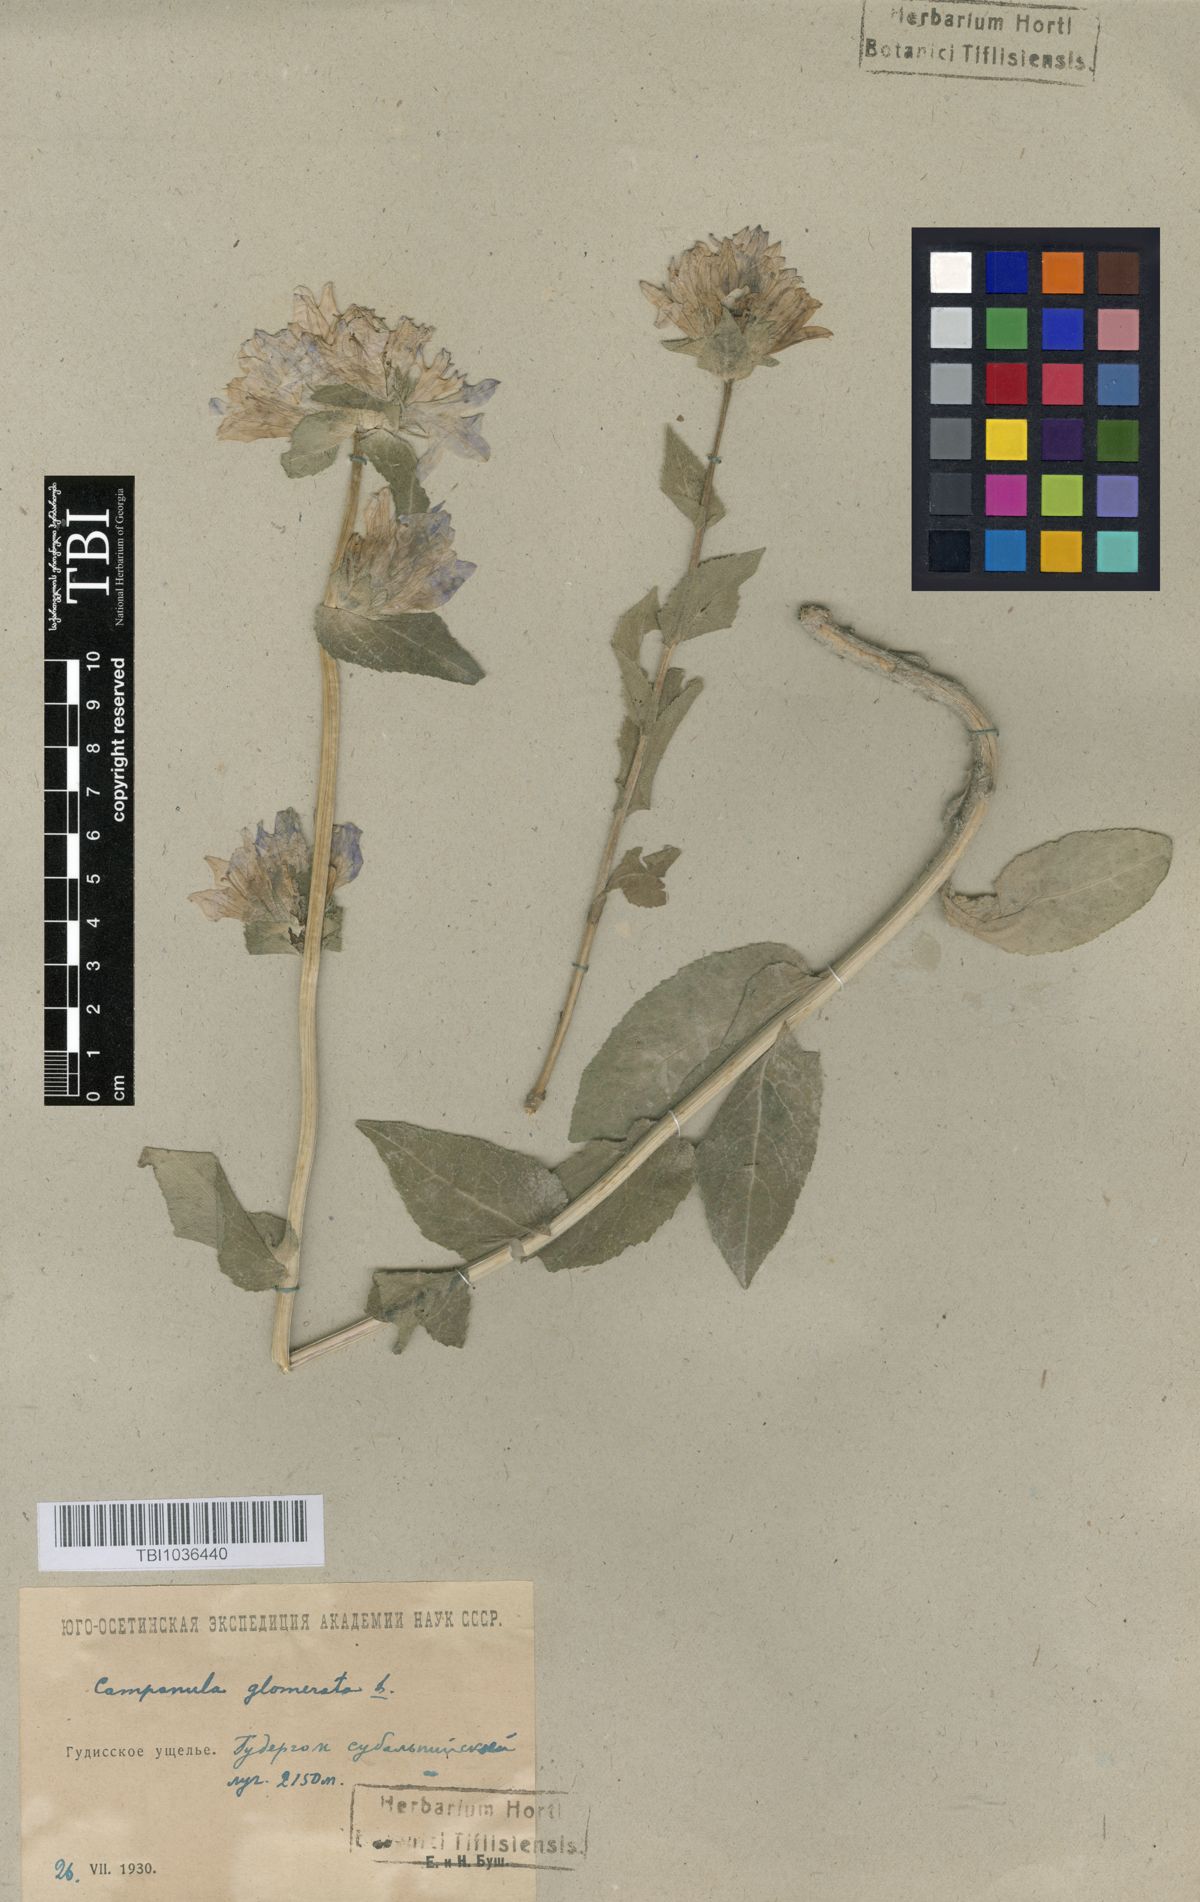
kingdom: Plantae
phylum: Tracheophyta
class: Magnoliopsida
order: Asterales
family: Campanulaceae
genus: Campanula
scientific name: Campanula glomerata
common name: Clustered bellflower
